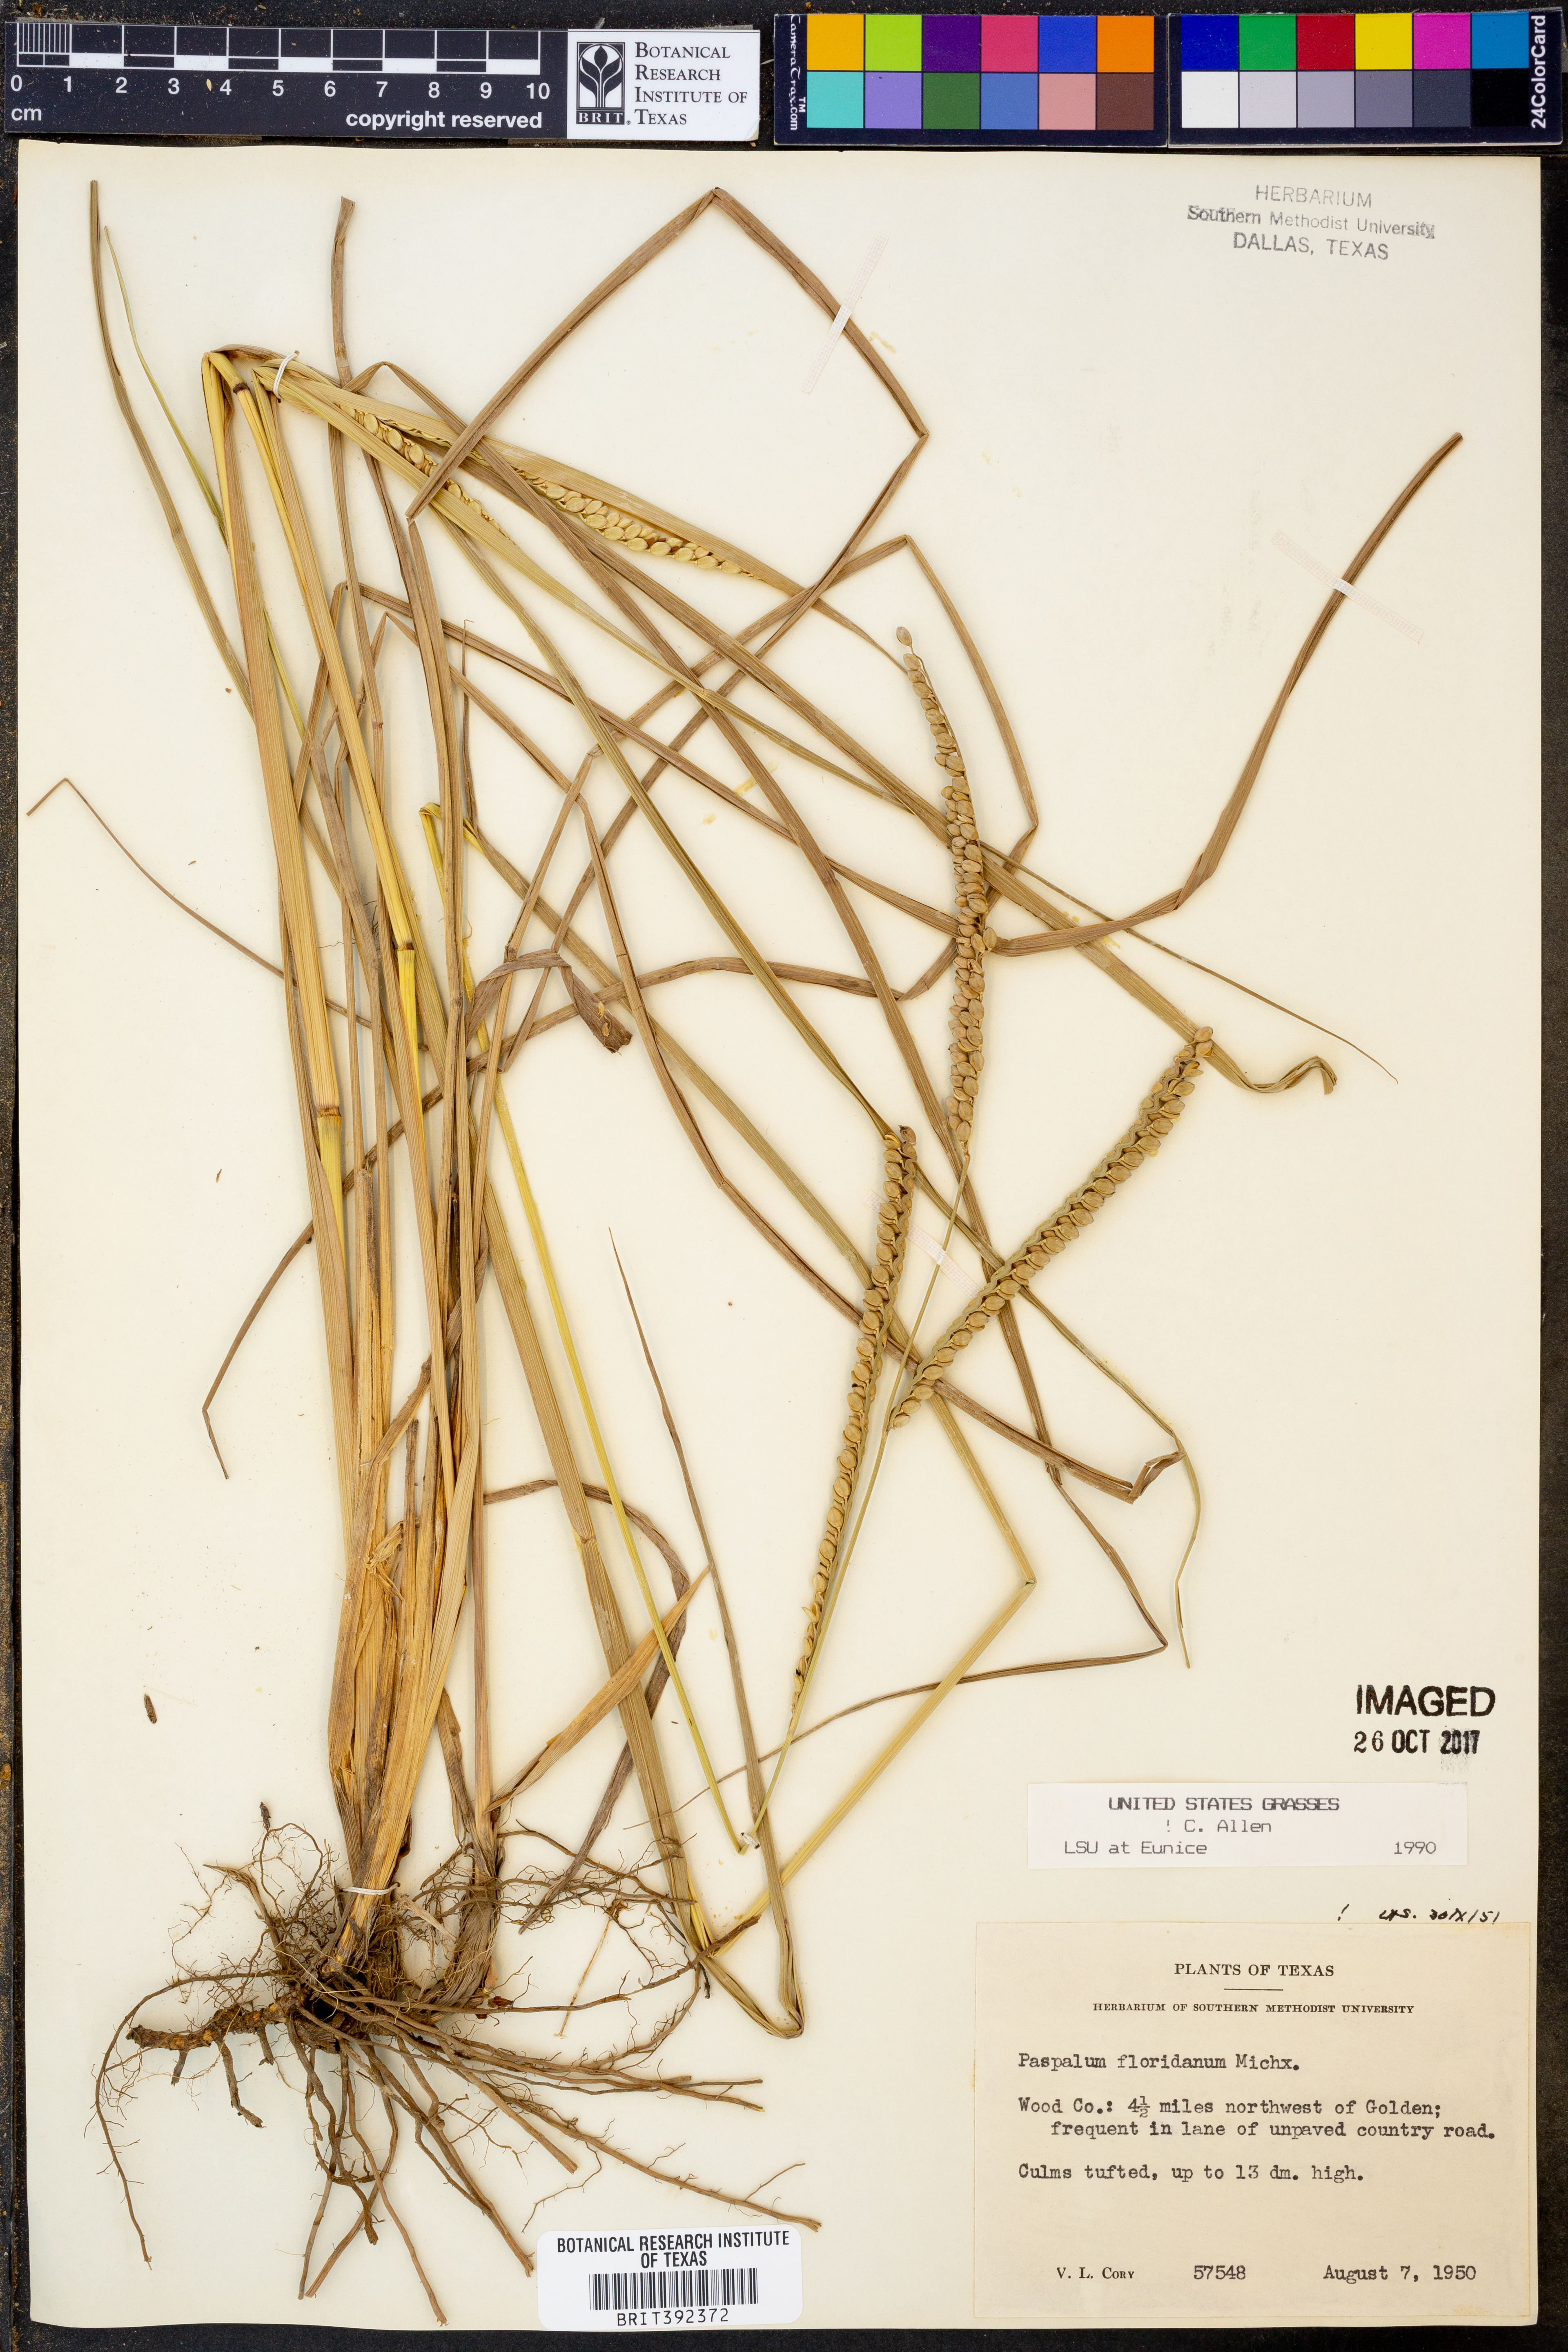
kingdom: Plantae
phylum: Tracheophyta
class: Liliopsida
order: Poales
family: Poaceae
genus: Paspalum
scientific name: Paspalum floridanum
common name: Florida paspalum
